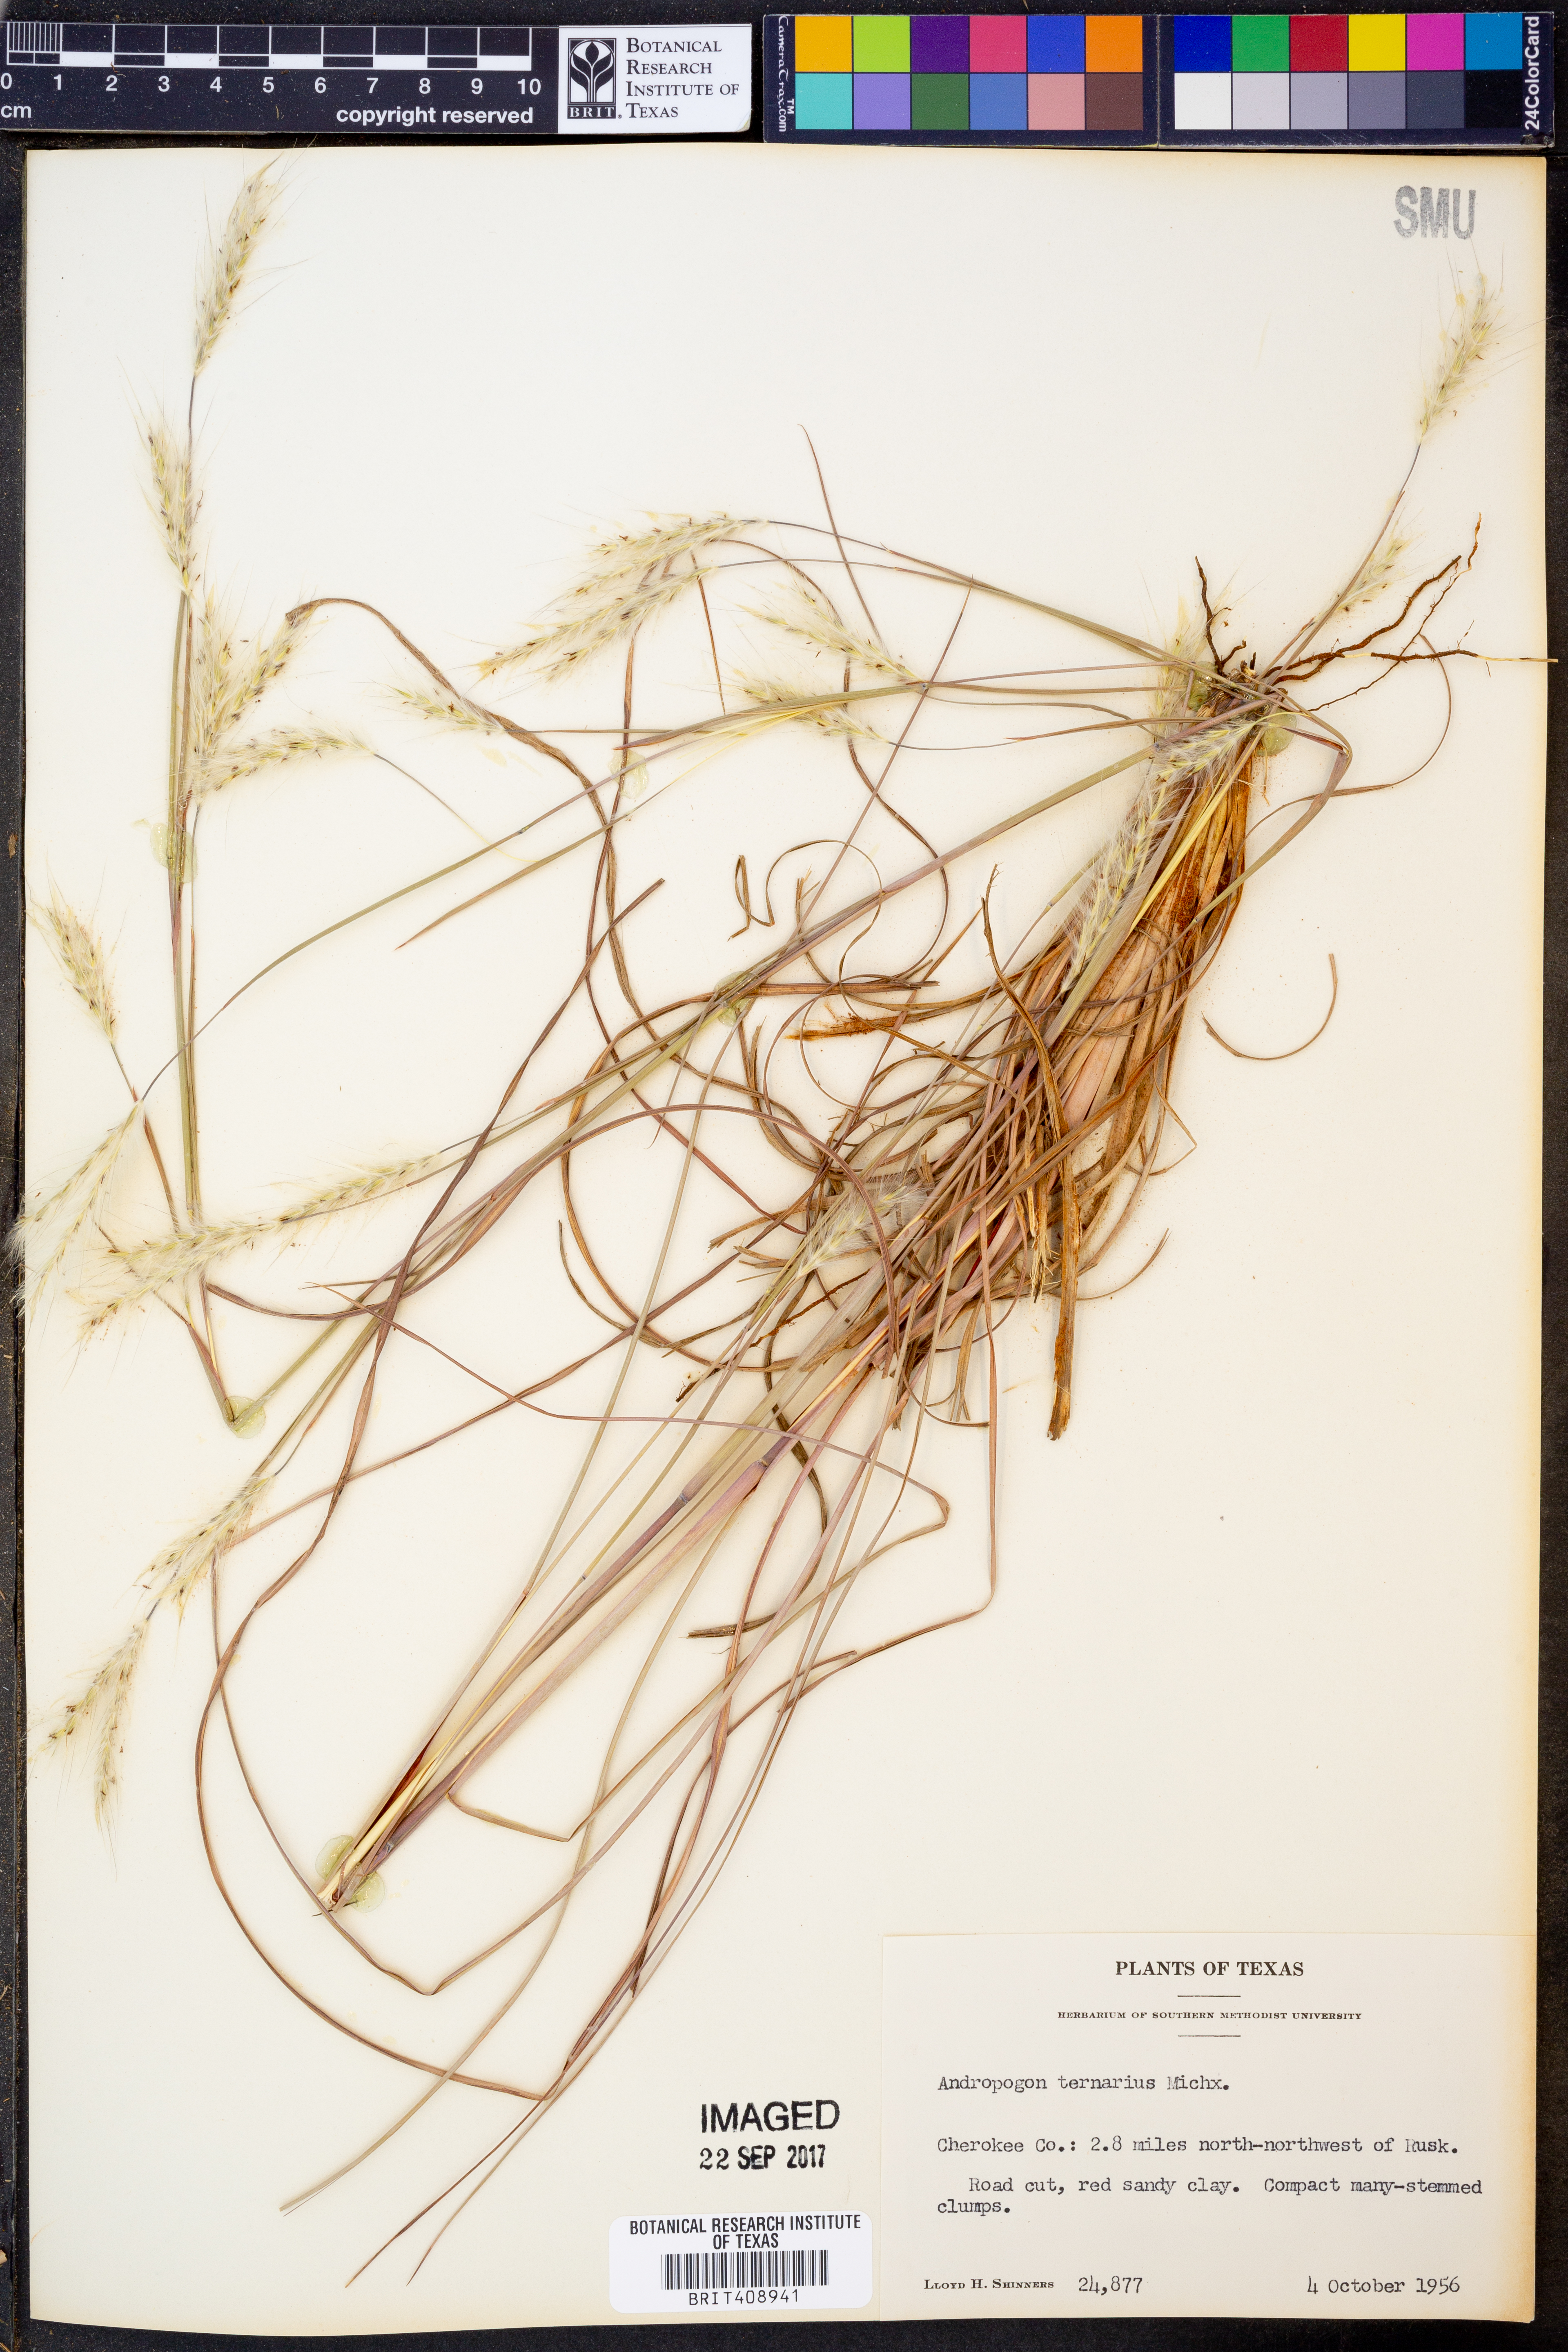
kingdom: Plantae
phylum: Tracheophyta
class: Liliopsida
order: Poales
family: Poaceae
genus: Andropogon
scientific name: Andropogon ternarius
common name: Split bluestem
